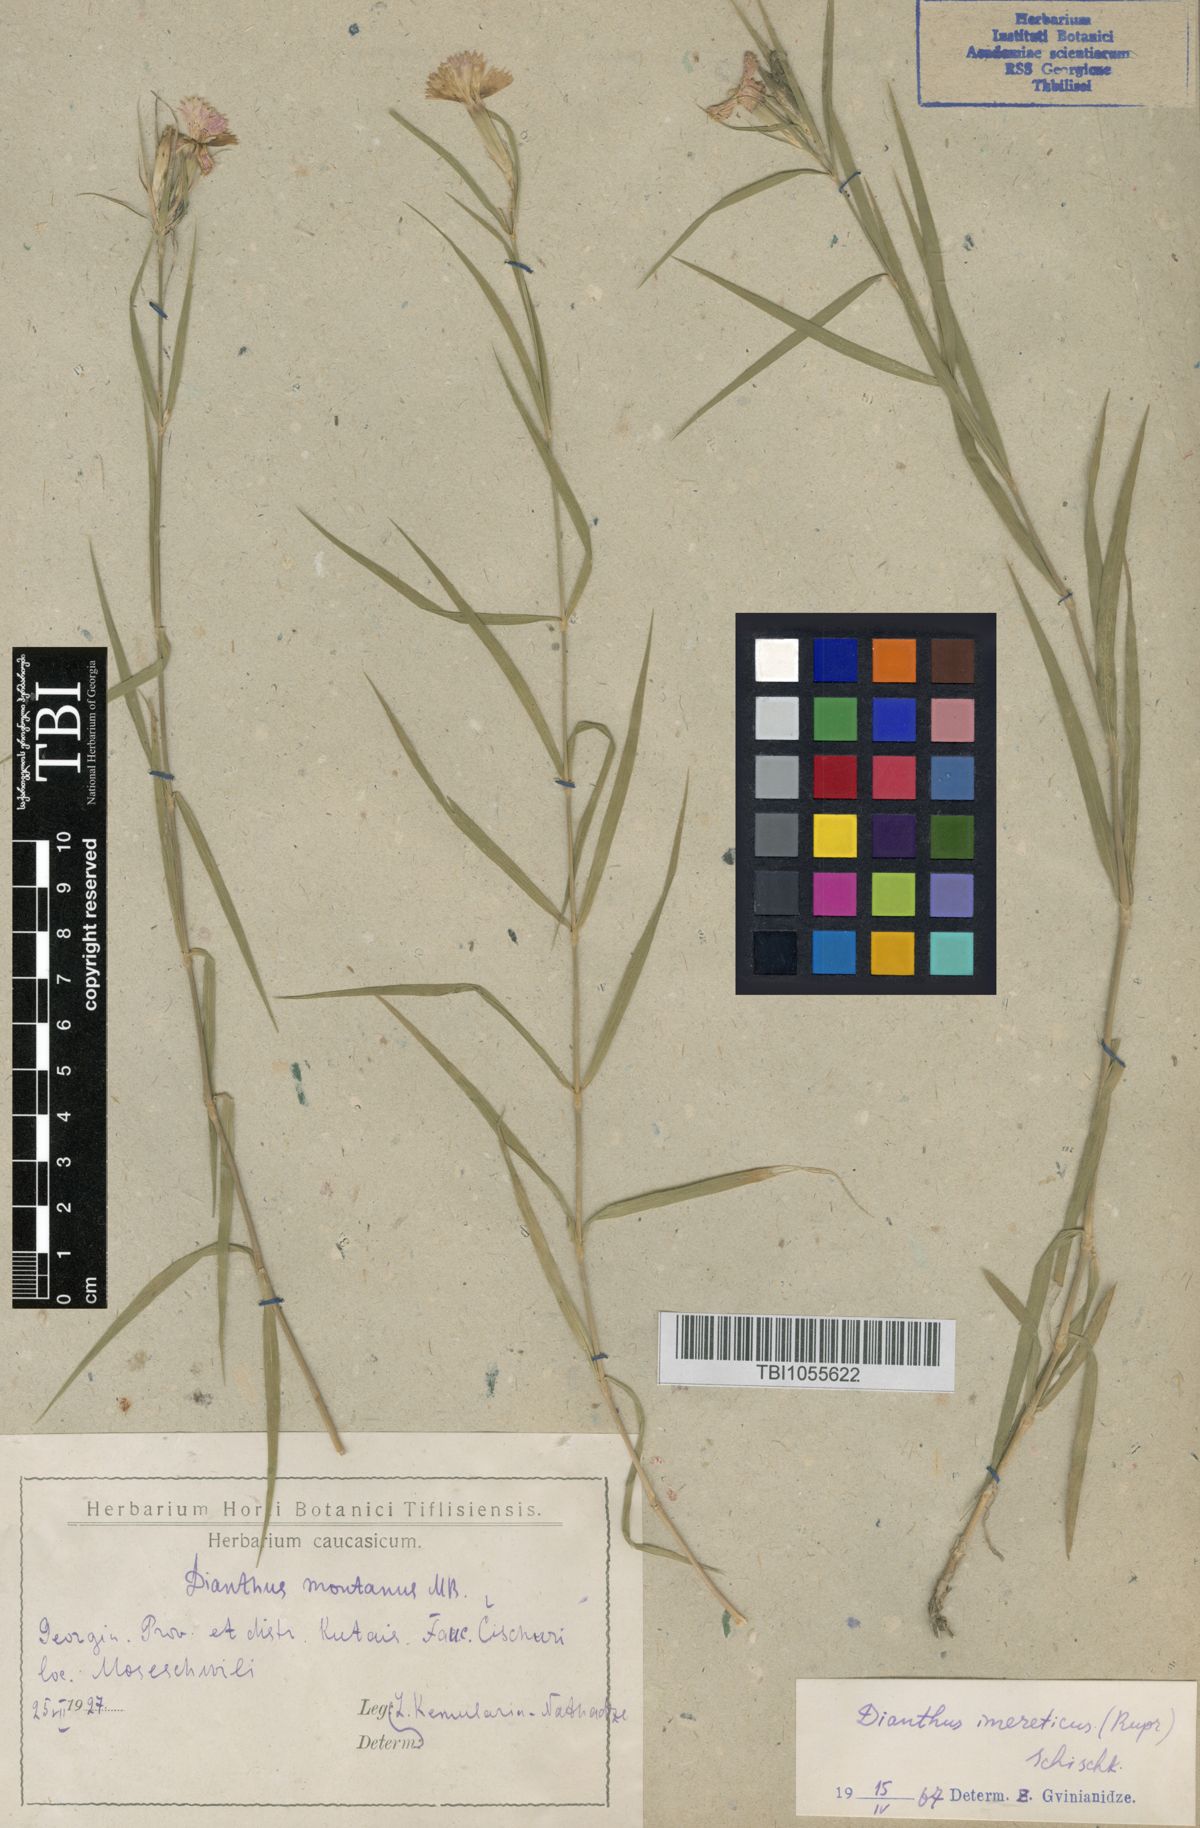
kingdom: Plantae
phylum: Tracheophyta
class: Magnoliopsida
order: Caryophyllales
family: Caryophyllaceae
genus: Dianthus
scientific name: Dianthus imereticus
